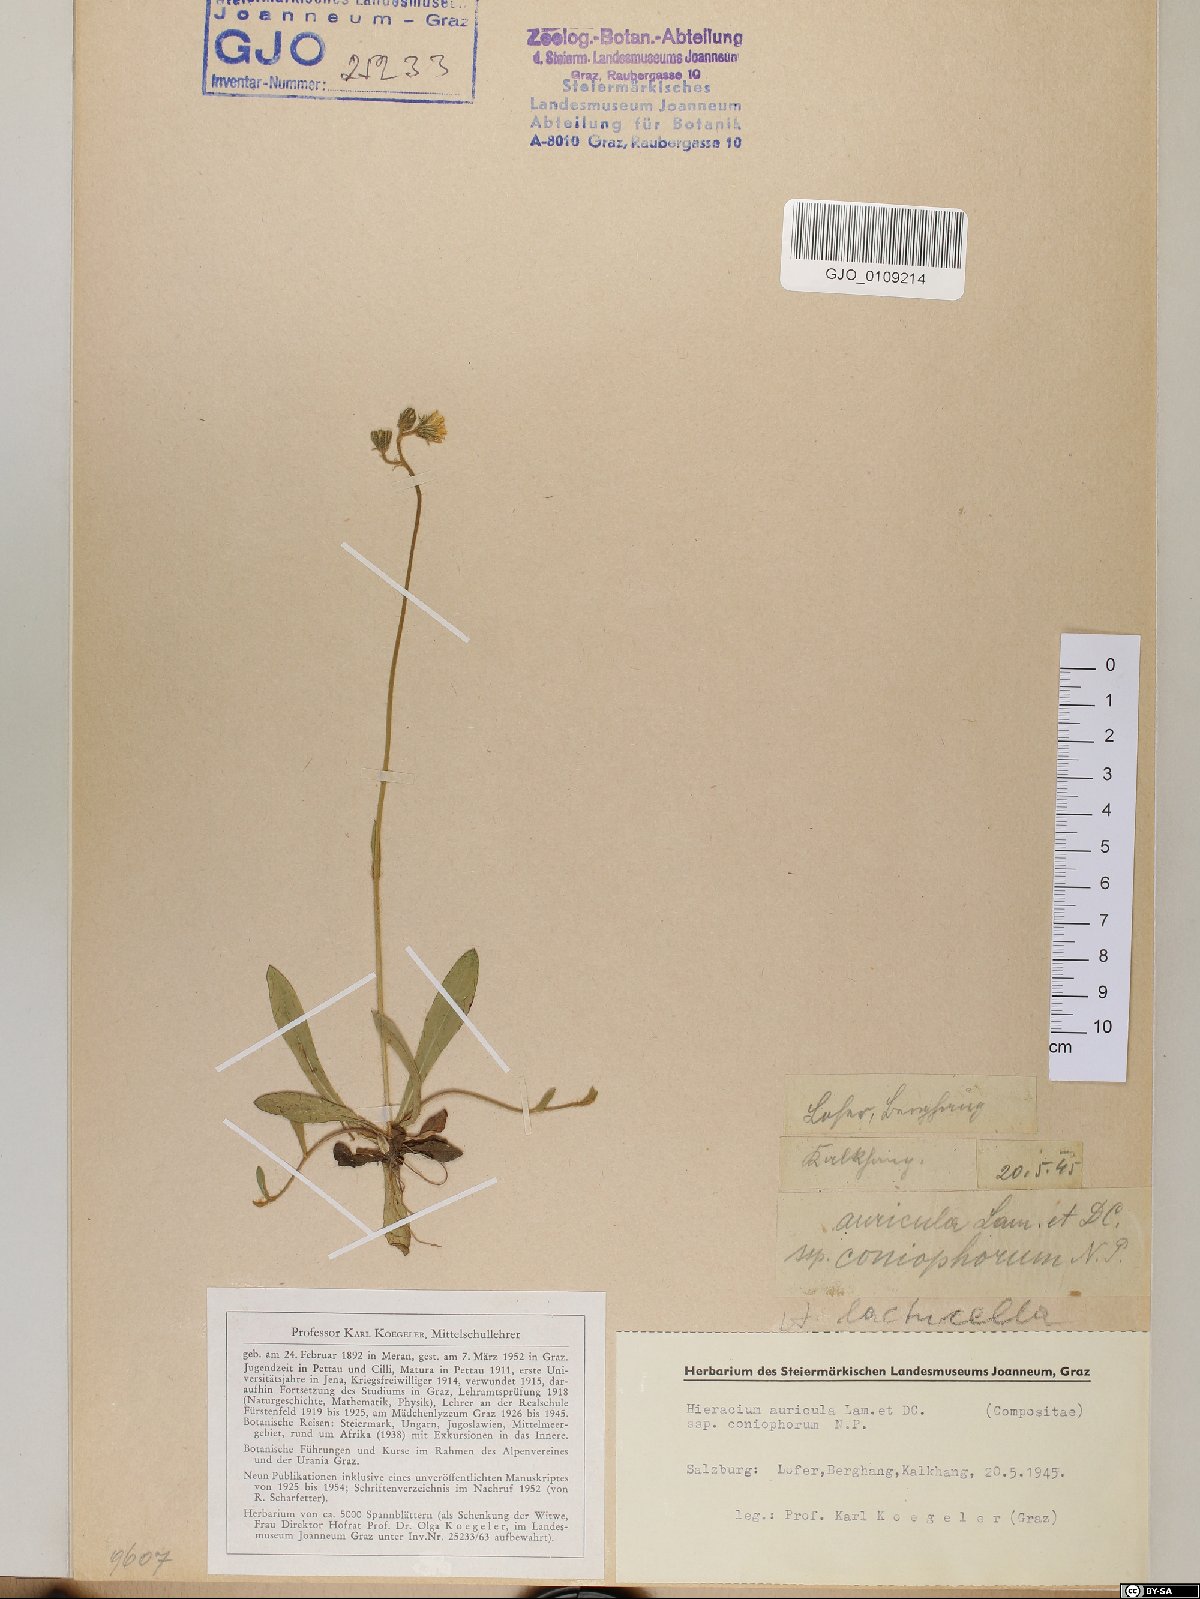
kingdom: Plantae
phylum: Tracheophyta
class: Magnoliopsida
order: Asterales
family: Asteraceae
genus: Hieracium
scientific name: Hieracium auricula
